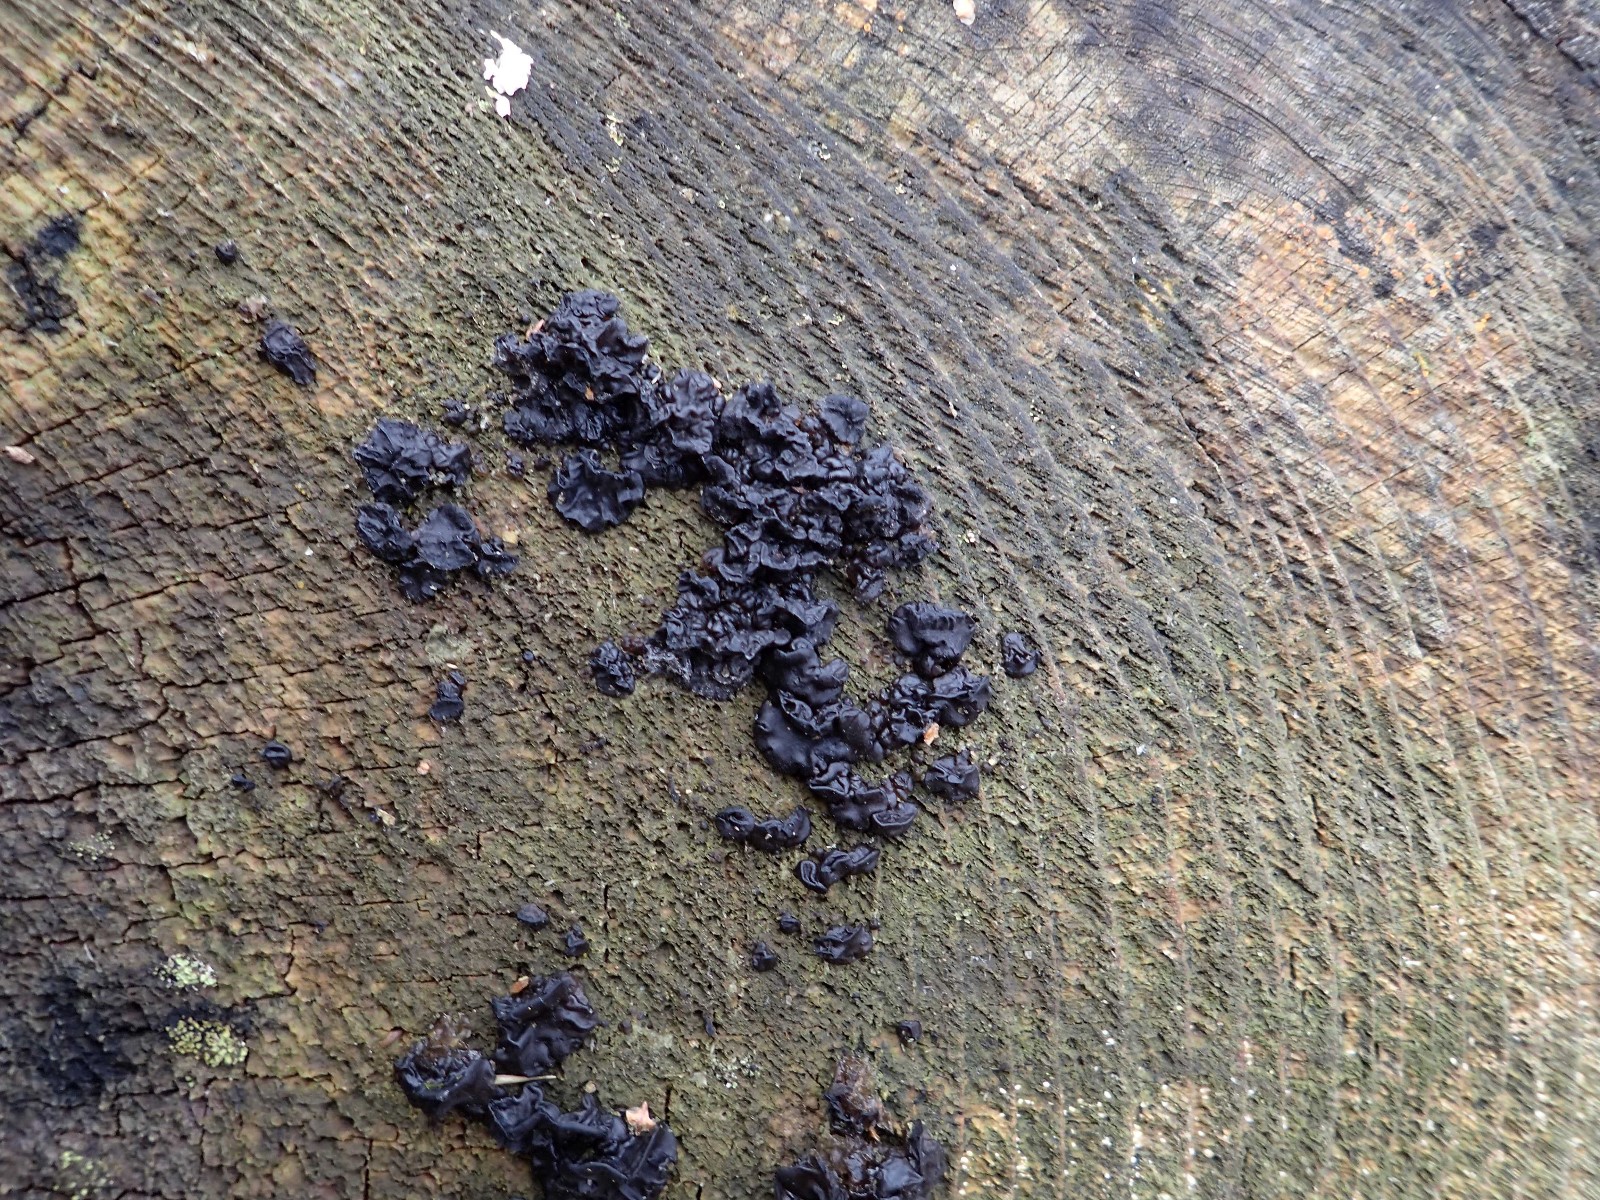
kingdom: Fungi
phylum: Basidiomycota
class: Agaricomycetes
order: Auriculariales
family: Auriculariaceae
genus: Exidia
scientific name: Exidia pithya
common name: gran-bævretop
